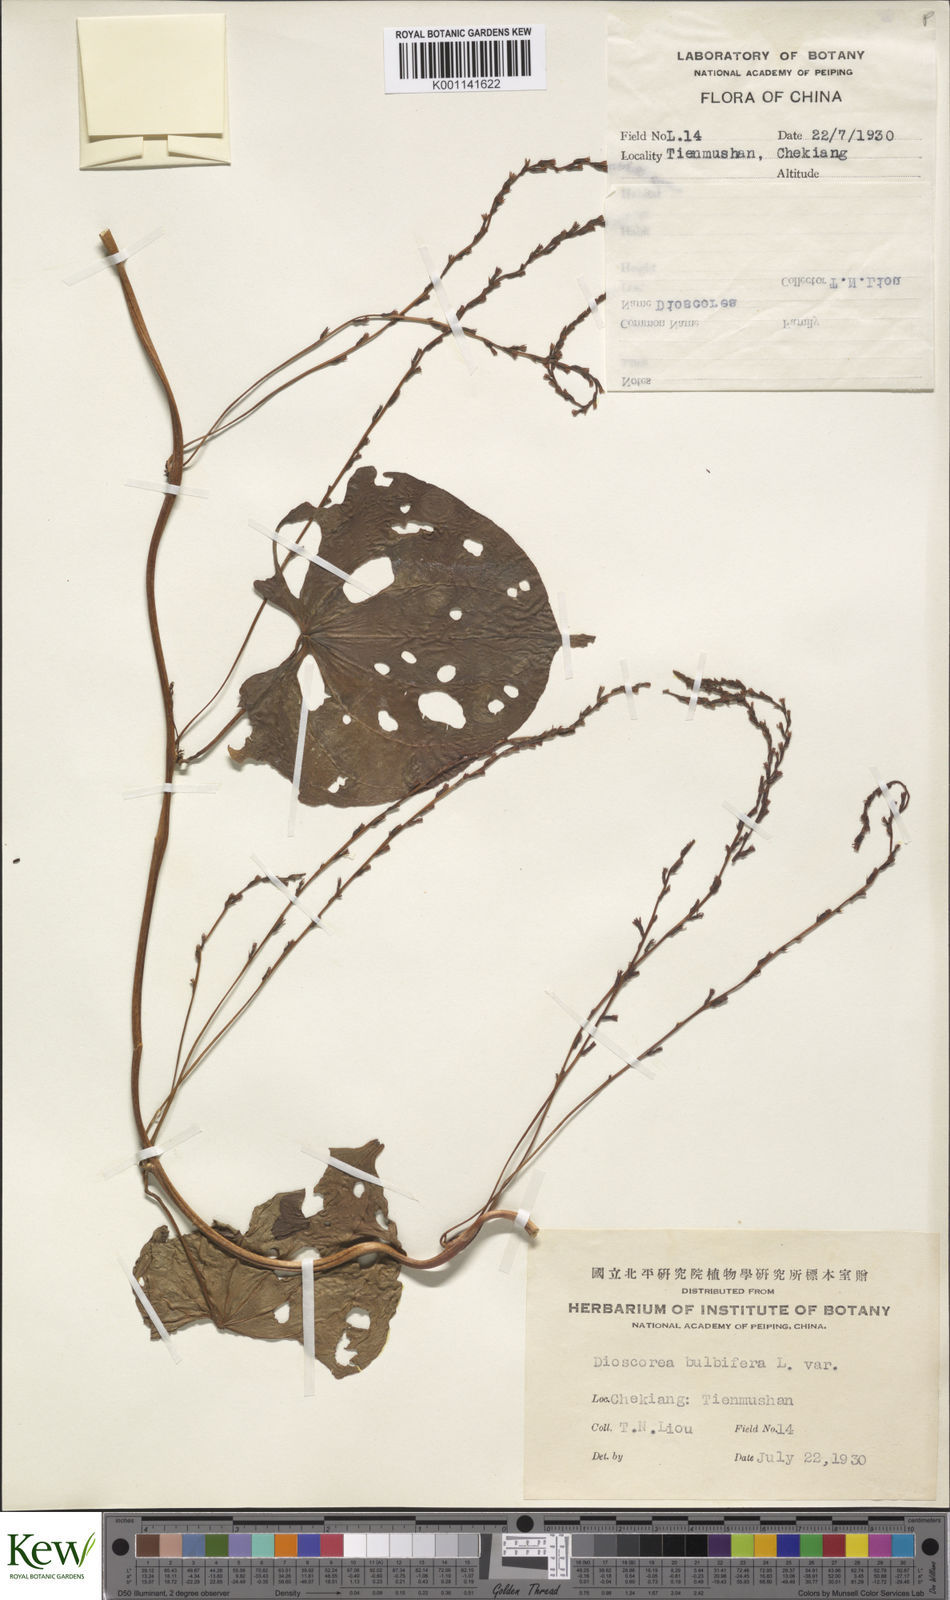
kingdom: Plantae
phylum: Tracheophyta
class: Liliopsida
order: Dioscoreales
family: Dioscoreaceae
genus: Dioscorea
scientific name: Dioscorea bulbifera
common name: Air yam
